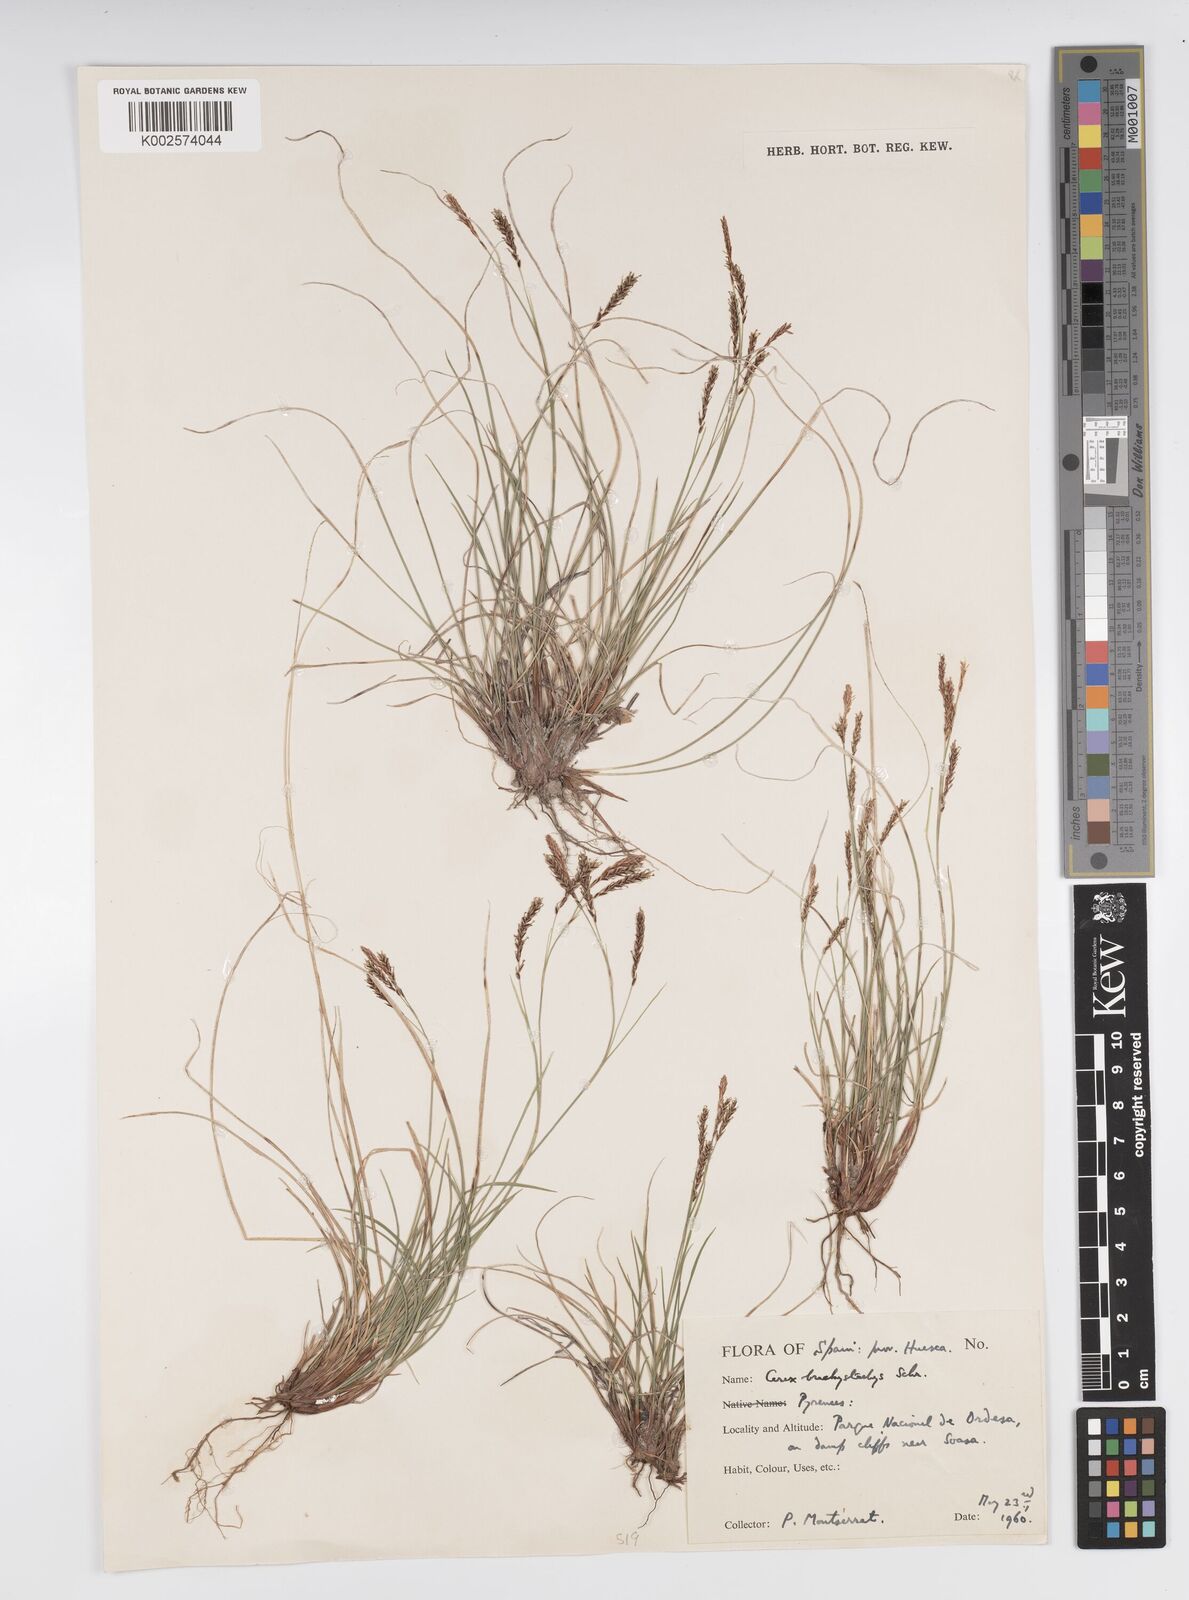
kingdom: Plantae
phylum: Tracheophyta
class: Liliopsida
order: Poales
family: Cyperaceae
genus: Carex
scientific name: Carex brachystachys
